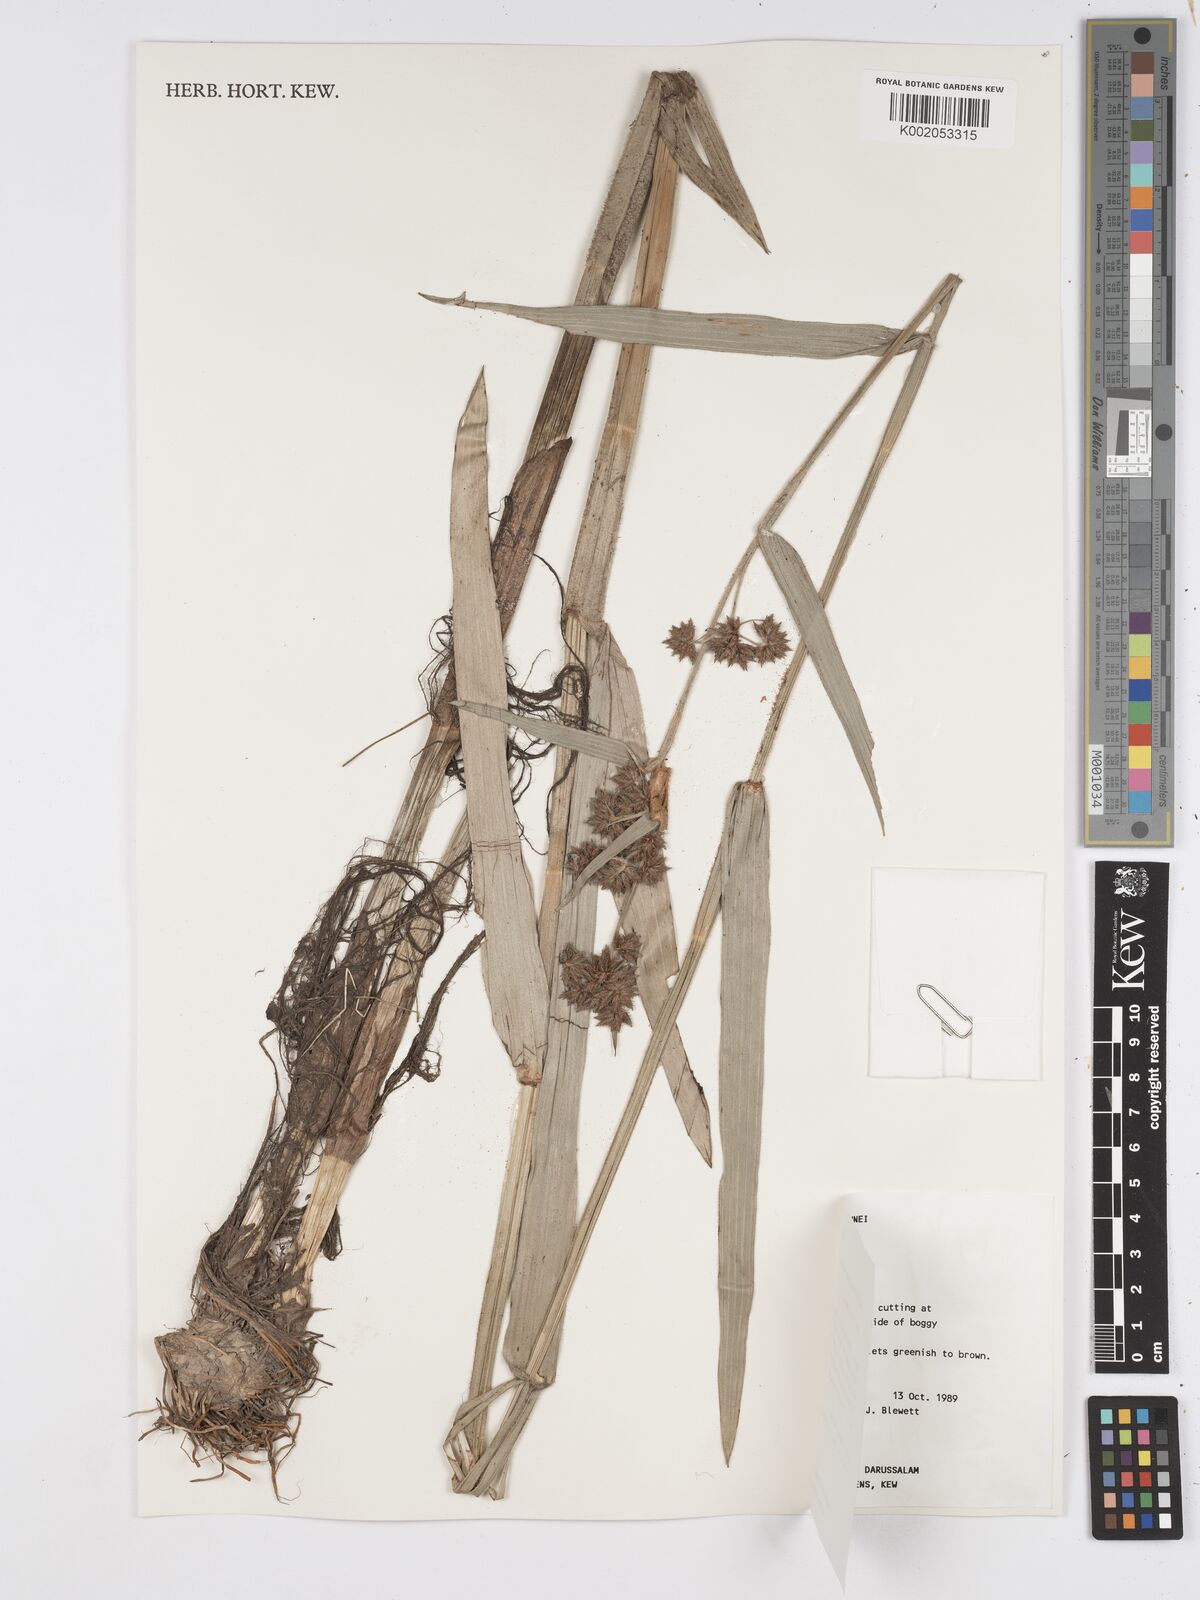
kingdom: Plantae
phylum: Tracheophyta
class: Liliopsida
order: Poales
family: Cyperaceae
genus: Fuirena
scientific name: Fuirena umbellata
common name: Yefen
